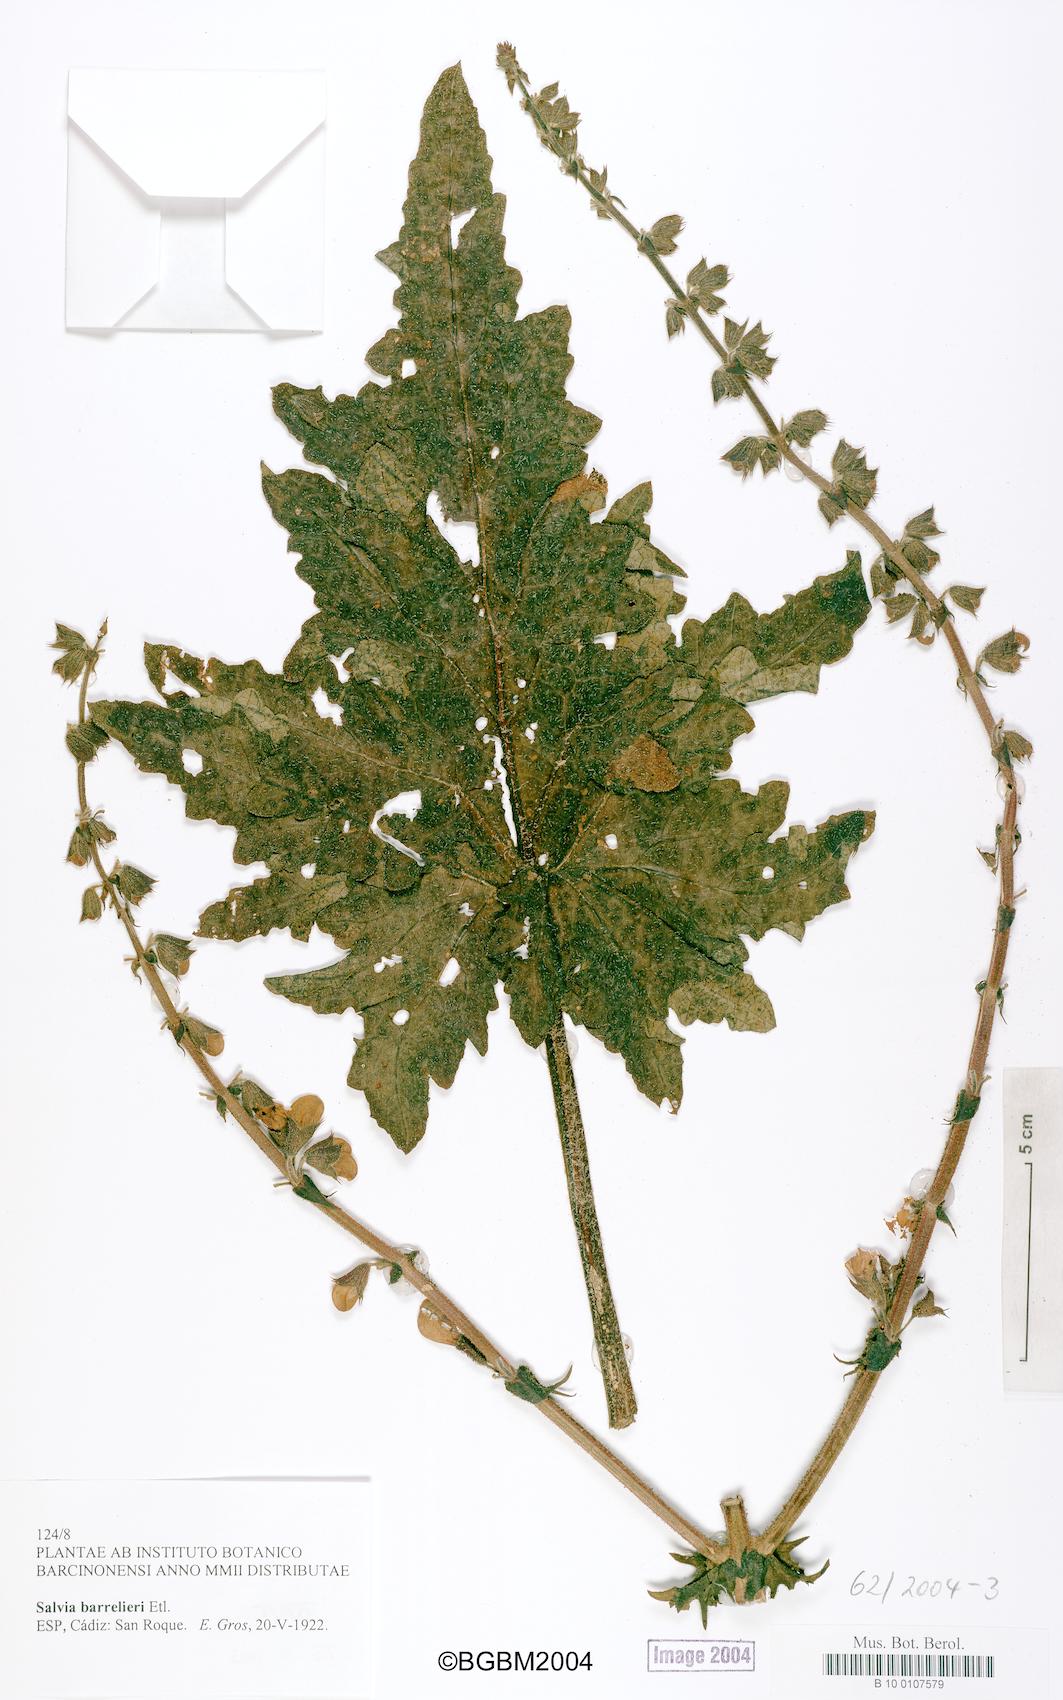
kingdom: Plantae
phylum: Tracheophyta
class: Magnoliopsida
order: Lamiales
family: Lamiaceae
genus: Salvia
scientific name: Salvia barrelieri
